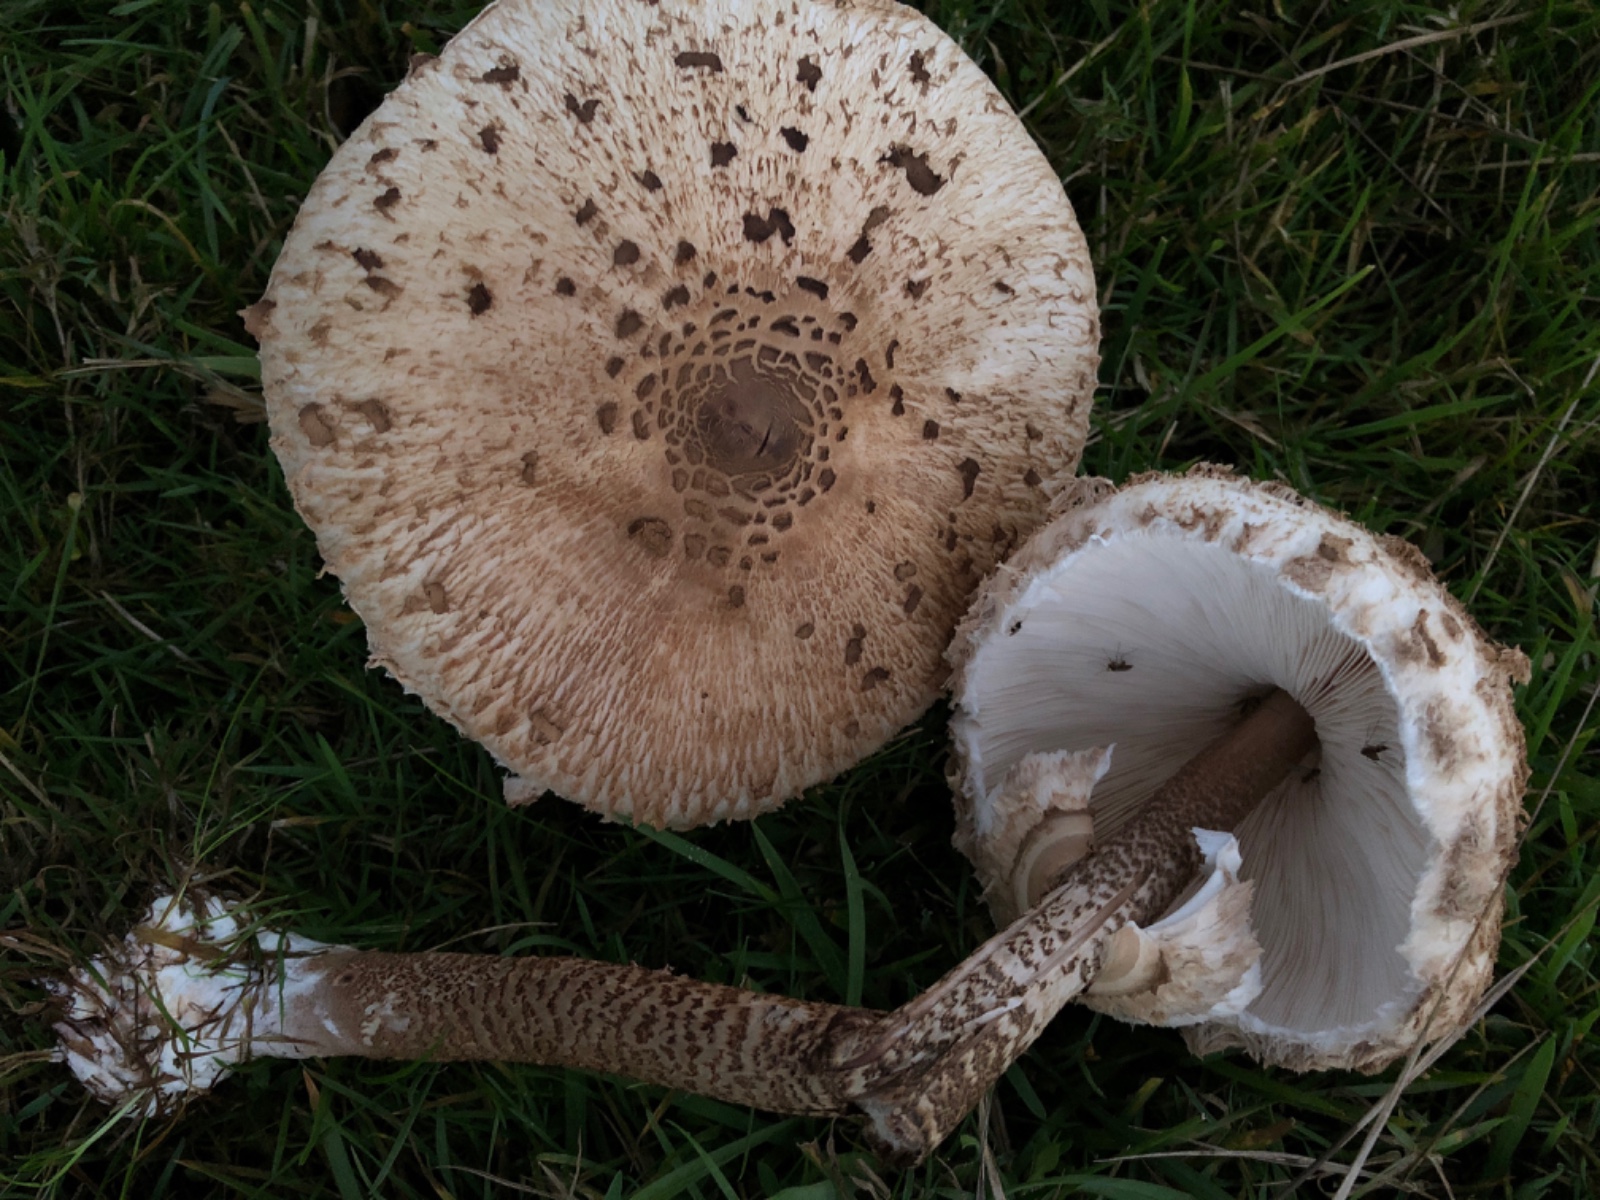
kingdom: Fungi
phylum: Basidiomycota
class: Agaricomycetes
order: Agaricales
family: Agaricaceae
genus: Macrolepiota
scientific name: Macrolepiota procera
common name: stor kæmpeparasolhat
